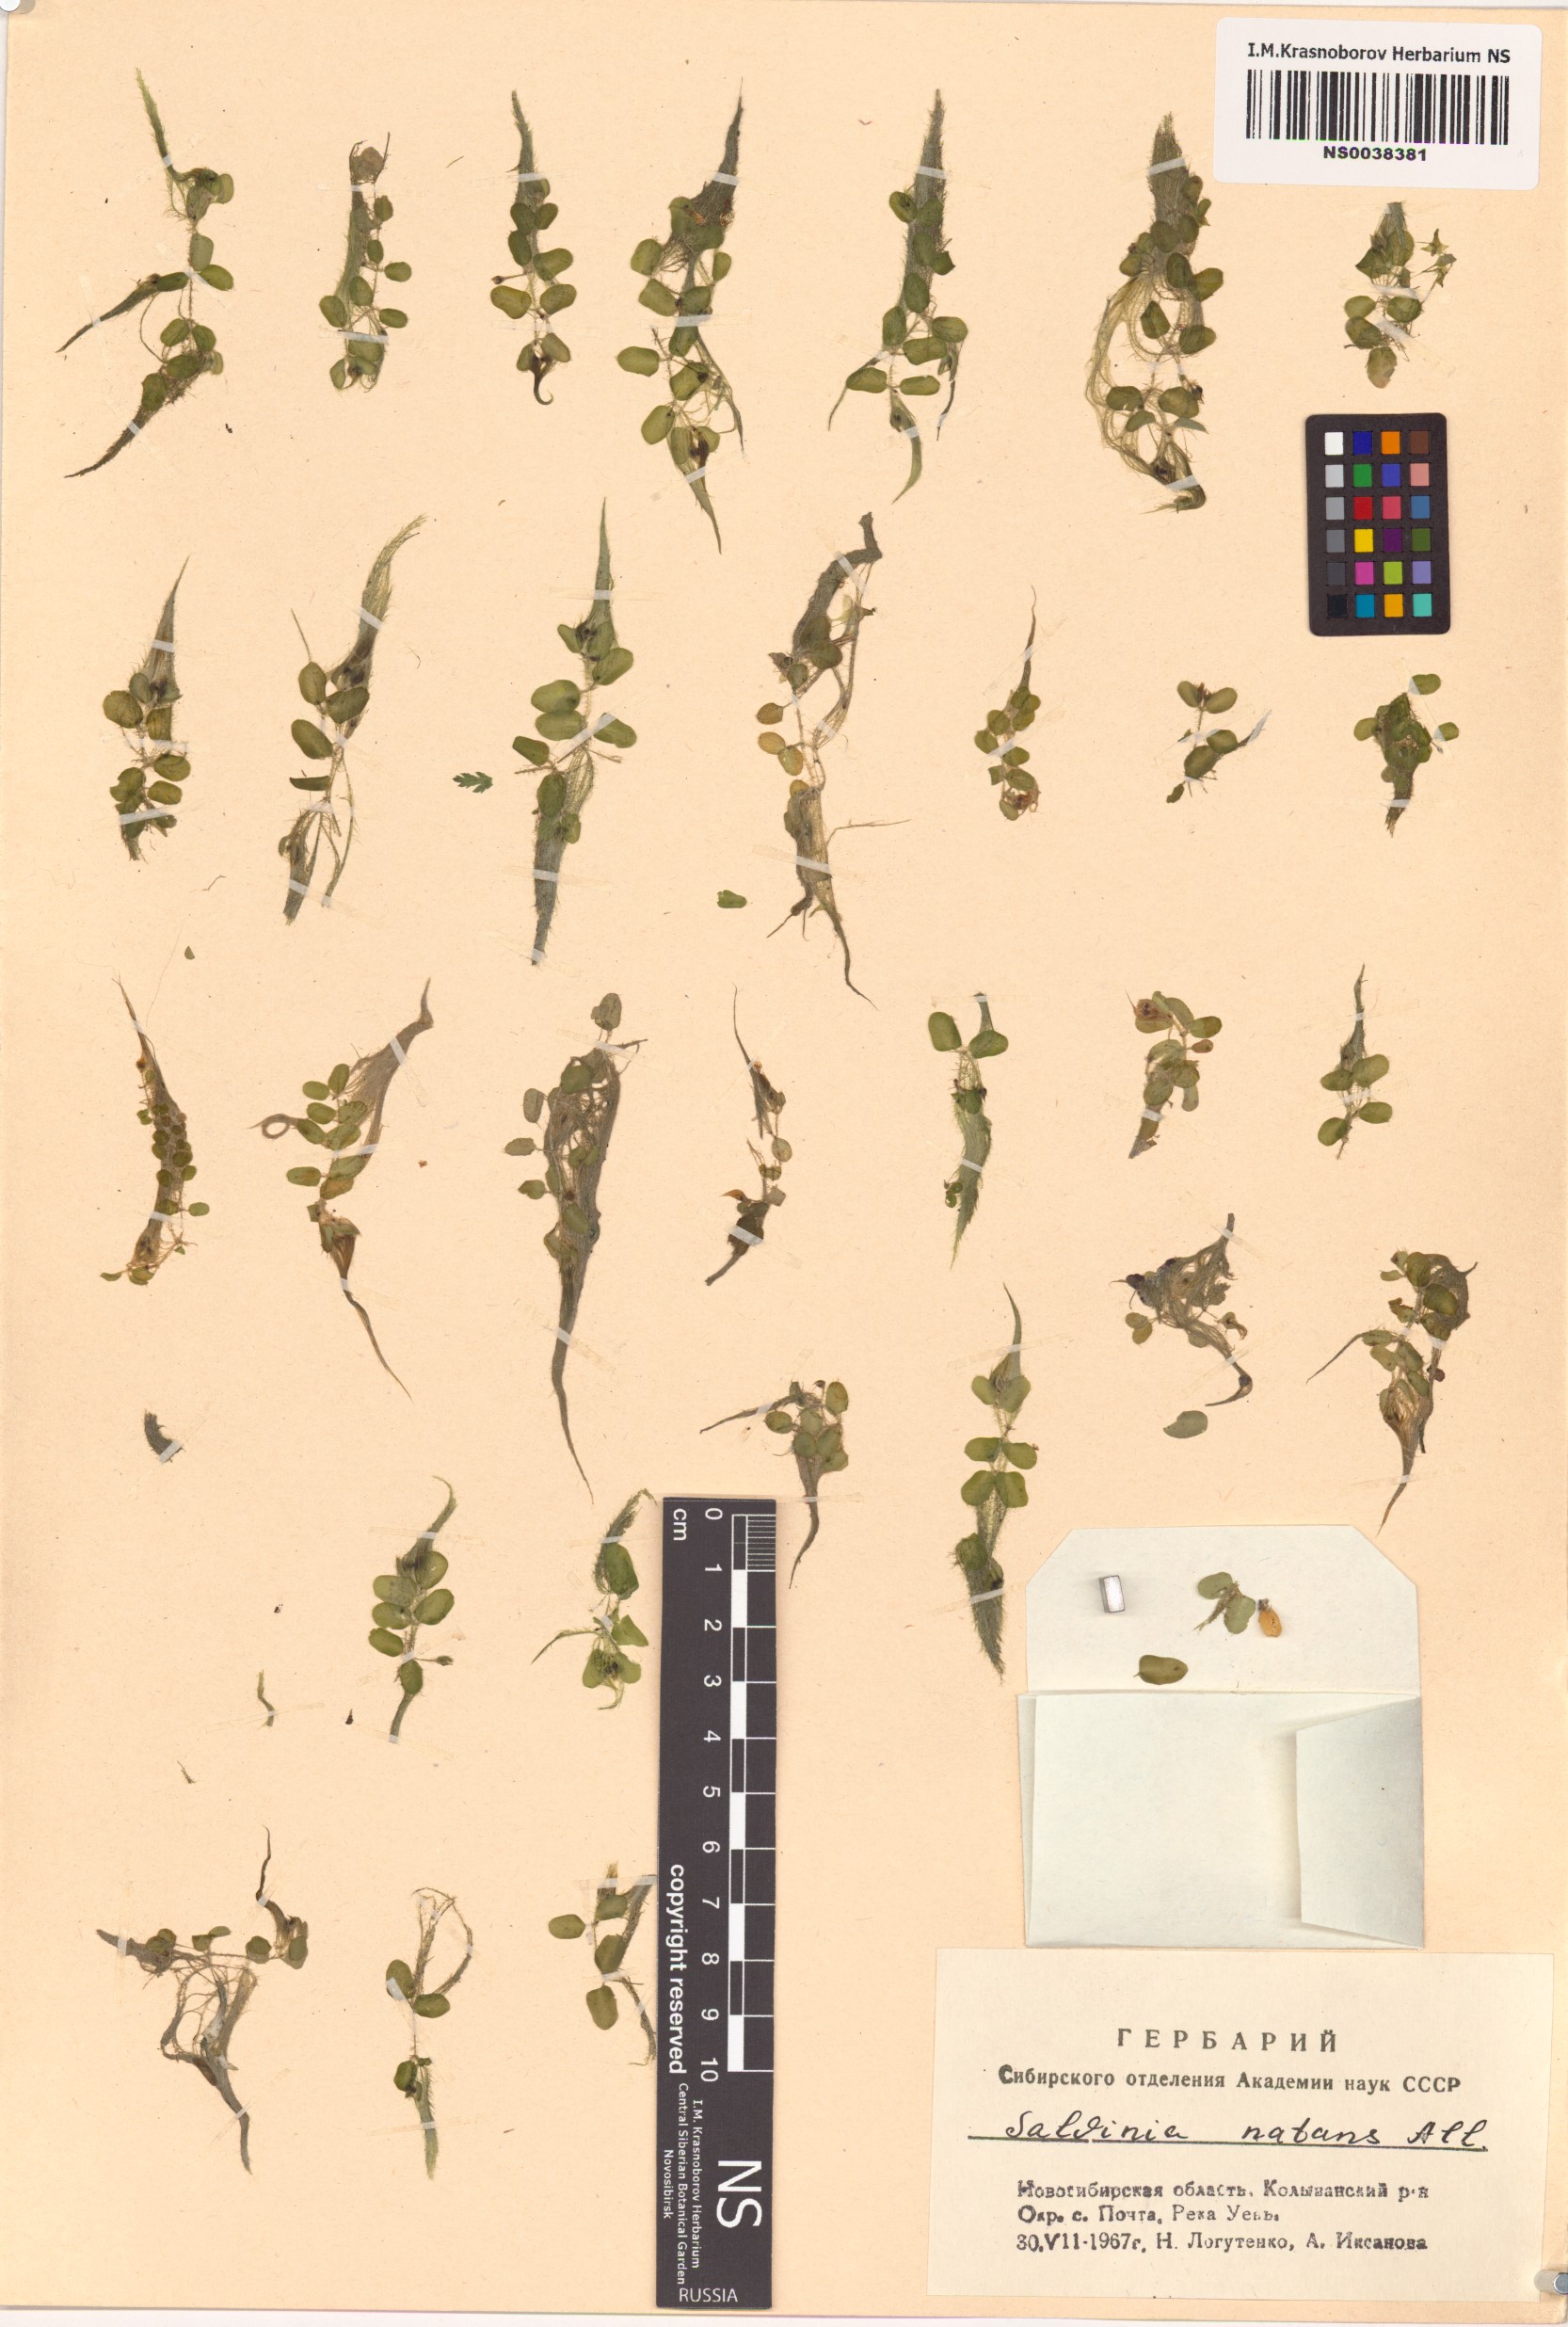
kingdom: Plantae
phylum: Tracheophyta
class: Polypodiopsida
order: Salviniales
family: Salviniaceae
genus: Salvinia
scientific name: Salvinia natans
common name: Floating fern
